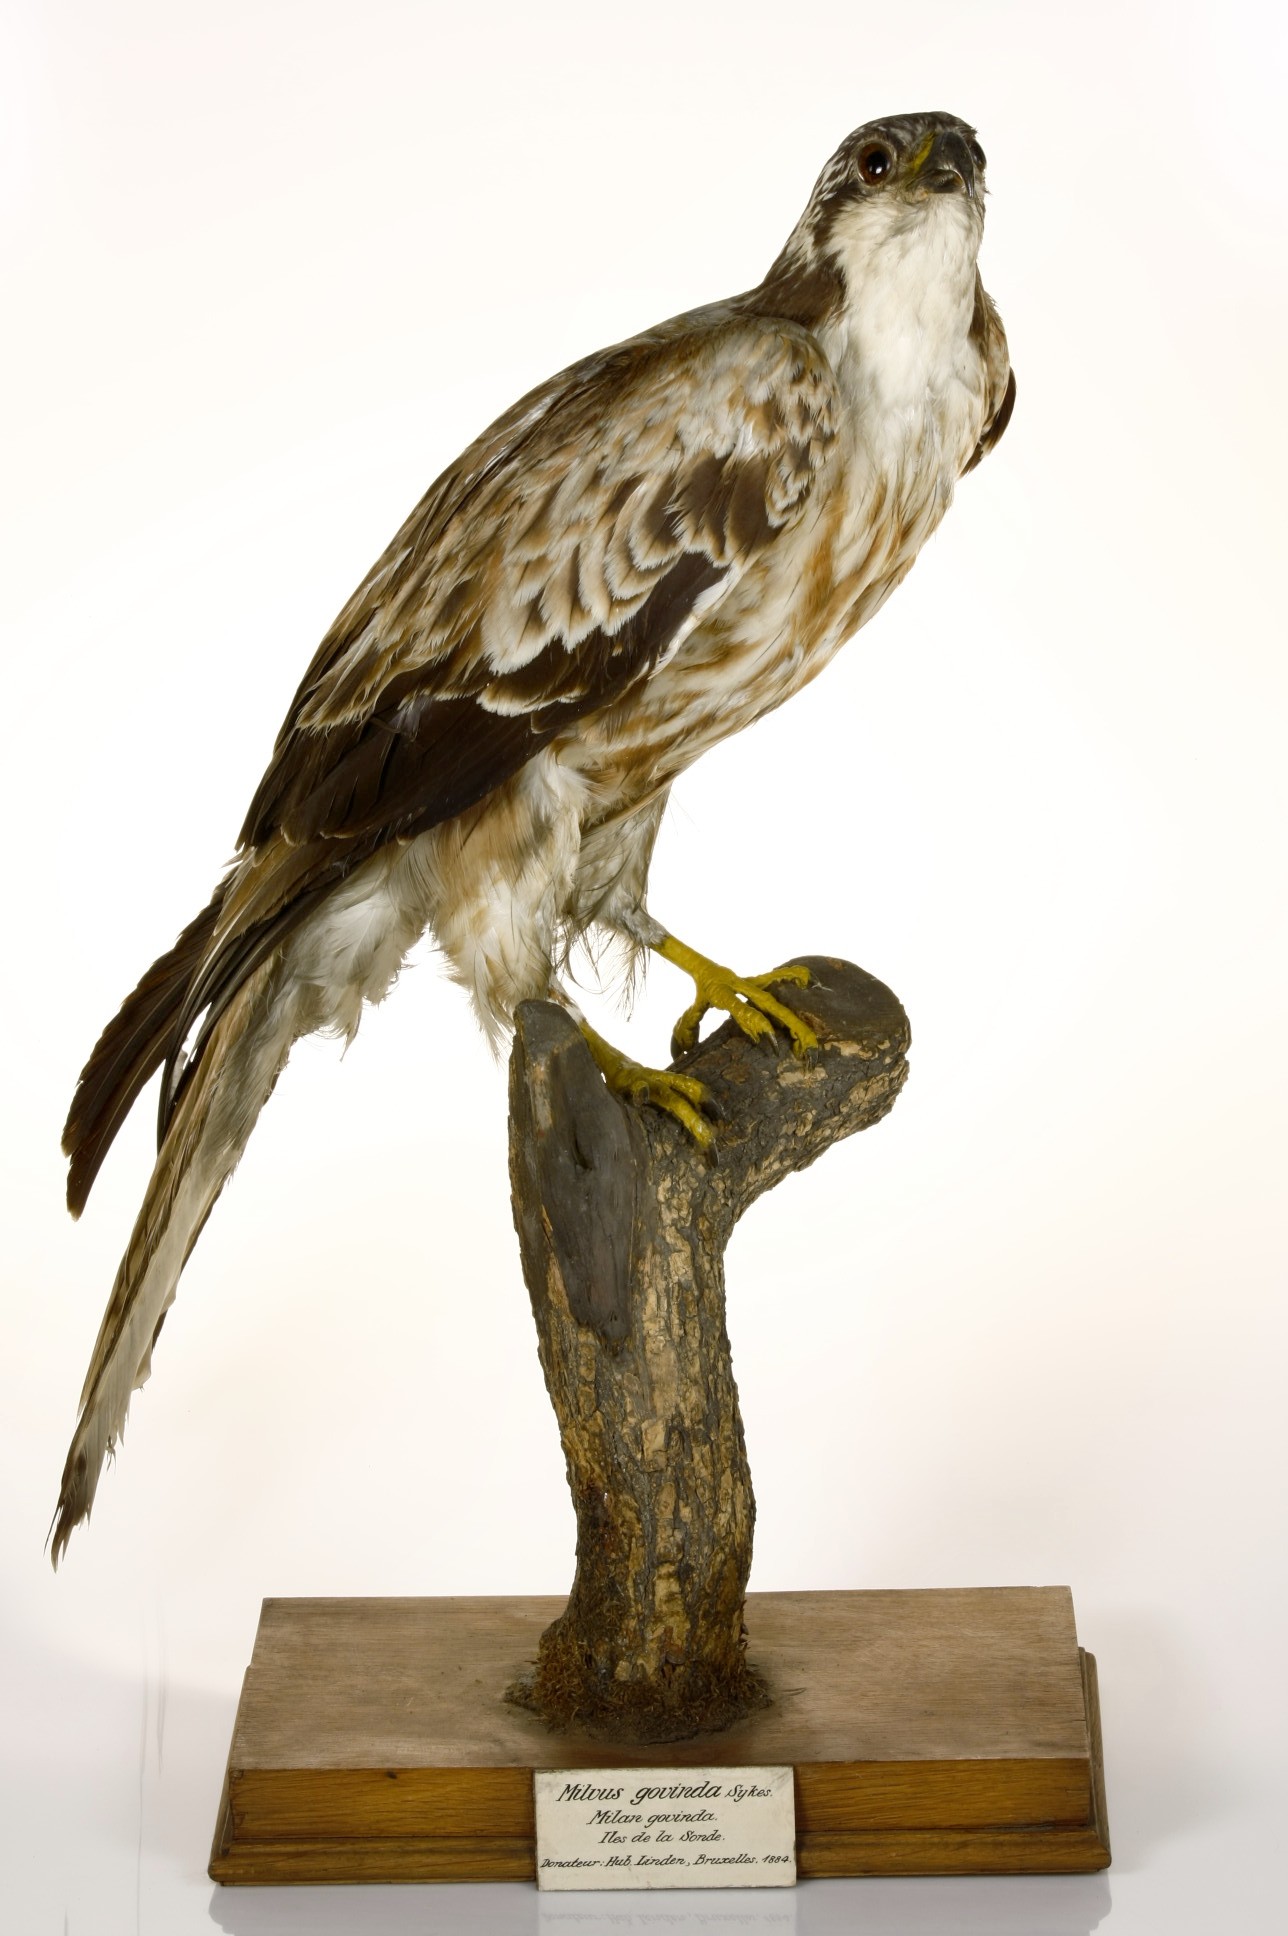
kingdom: Animalia
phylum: Chordata
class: Aves
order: Accipitriformes
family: Accipitridae
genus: Milvus
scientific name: Milvus migrans
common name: Black kite
